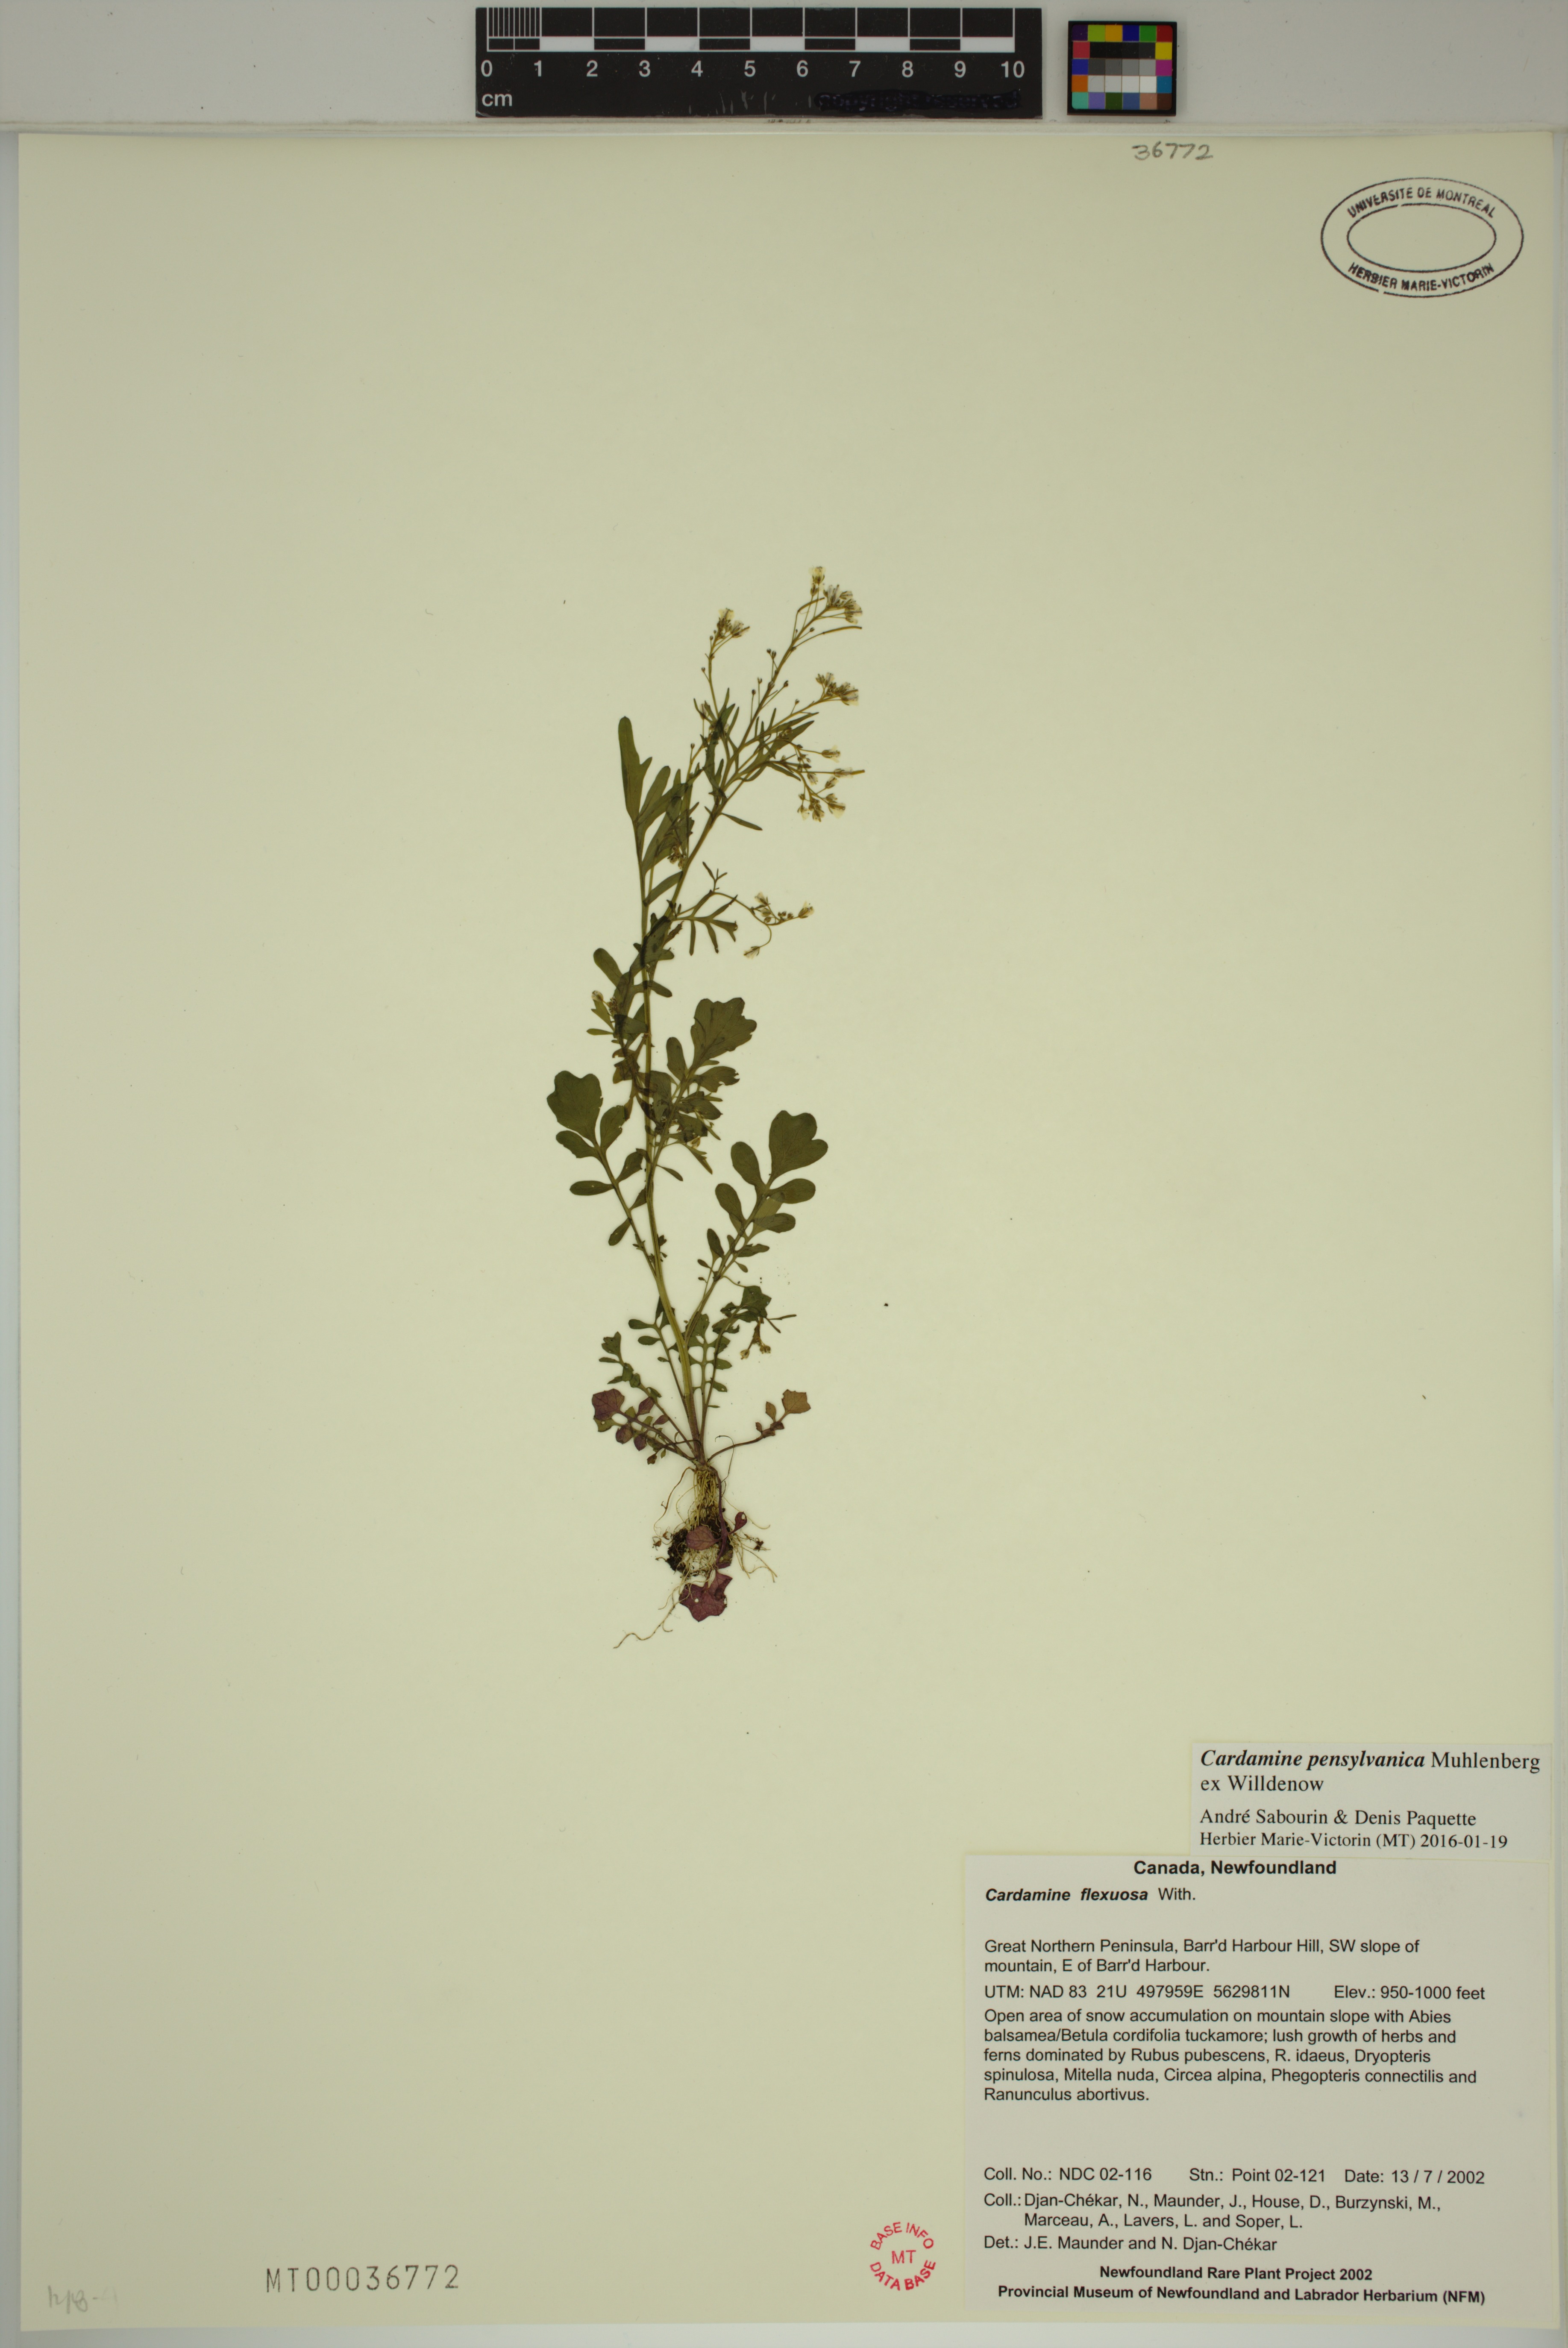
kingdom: Plantae
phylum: Tracheophyta
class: Magnoliopsida
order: Brassicales
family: Brassicaceae
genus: Cardamine
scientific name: Cardamine pensylvanica
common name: Pennsylvania bittercress
